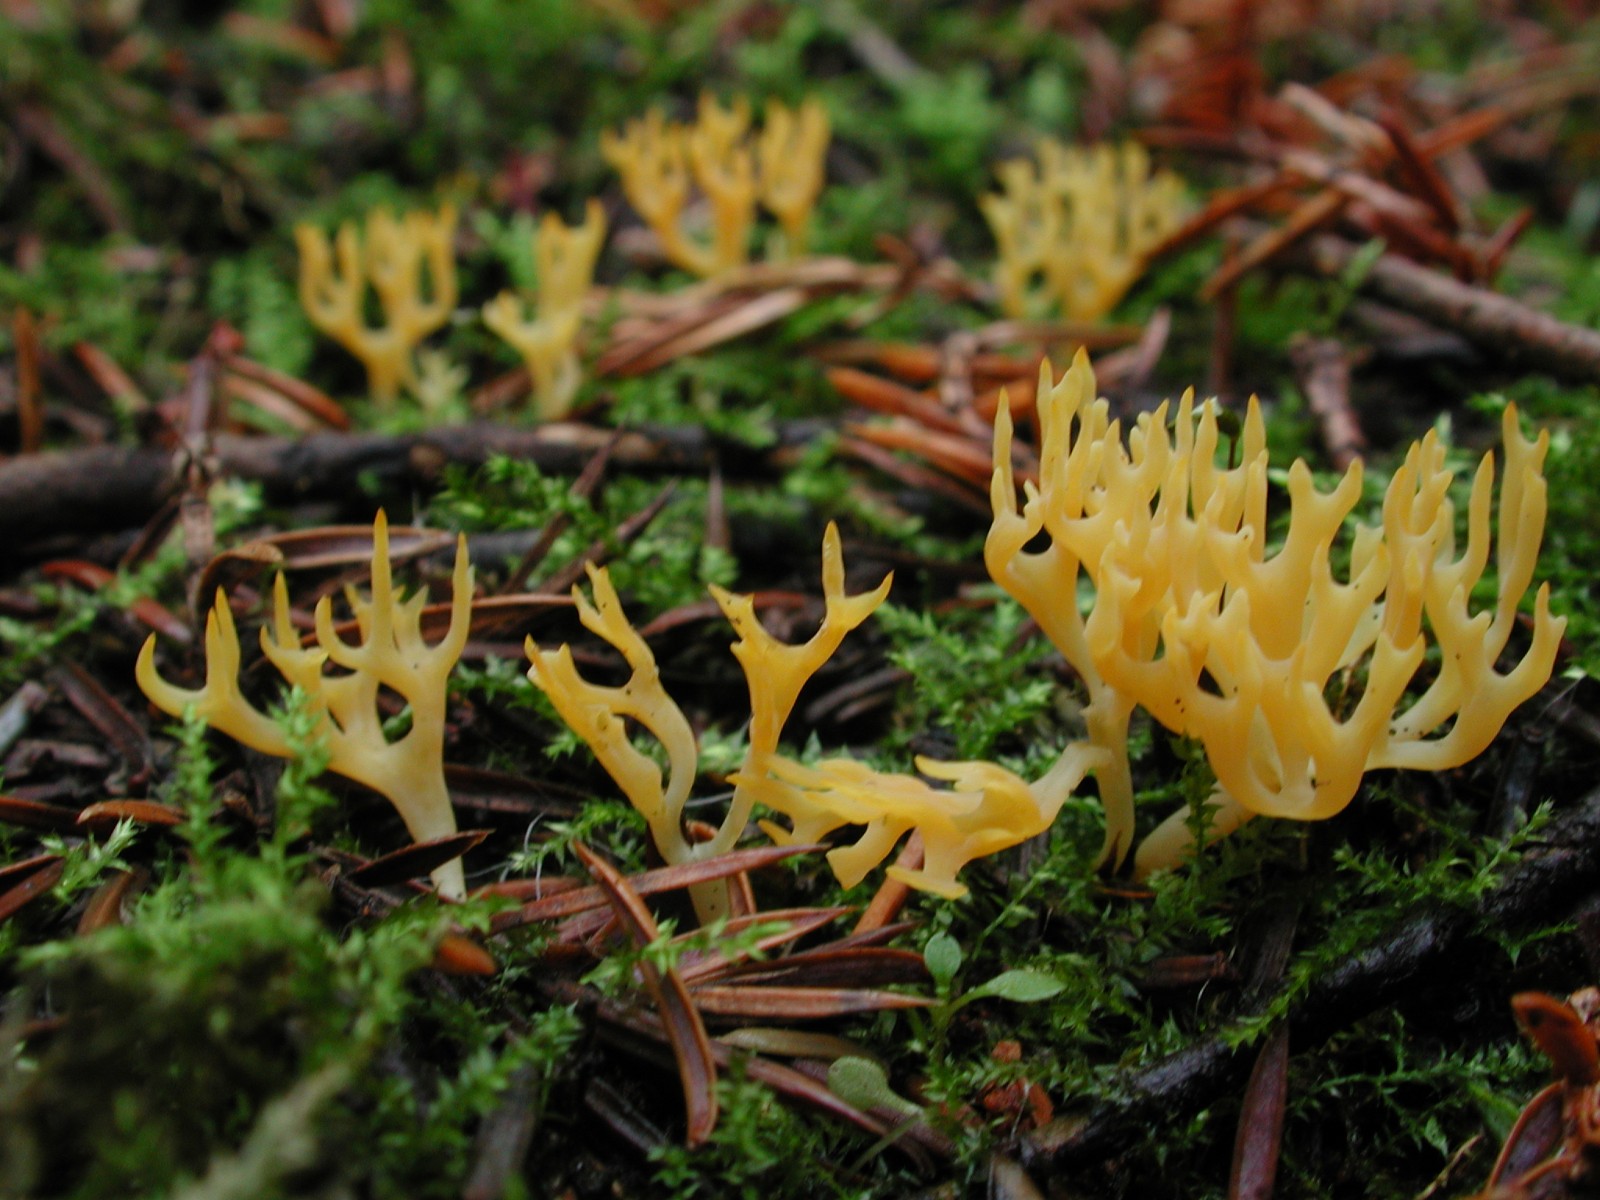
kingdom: Fungi
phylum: Basidiomycota
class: Agaricomycetes
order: Agaricales
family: Clavariaceae
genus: Ramariopsis
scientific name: Ramariopsis crocea
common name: gylden køllesvamp
